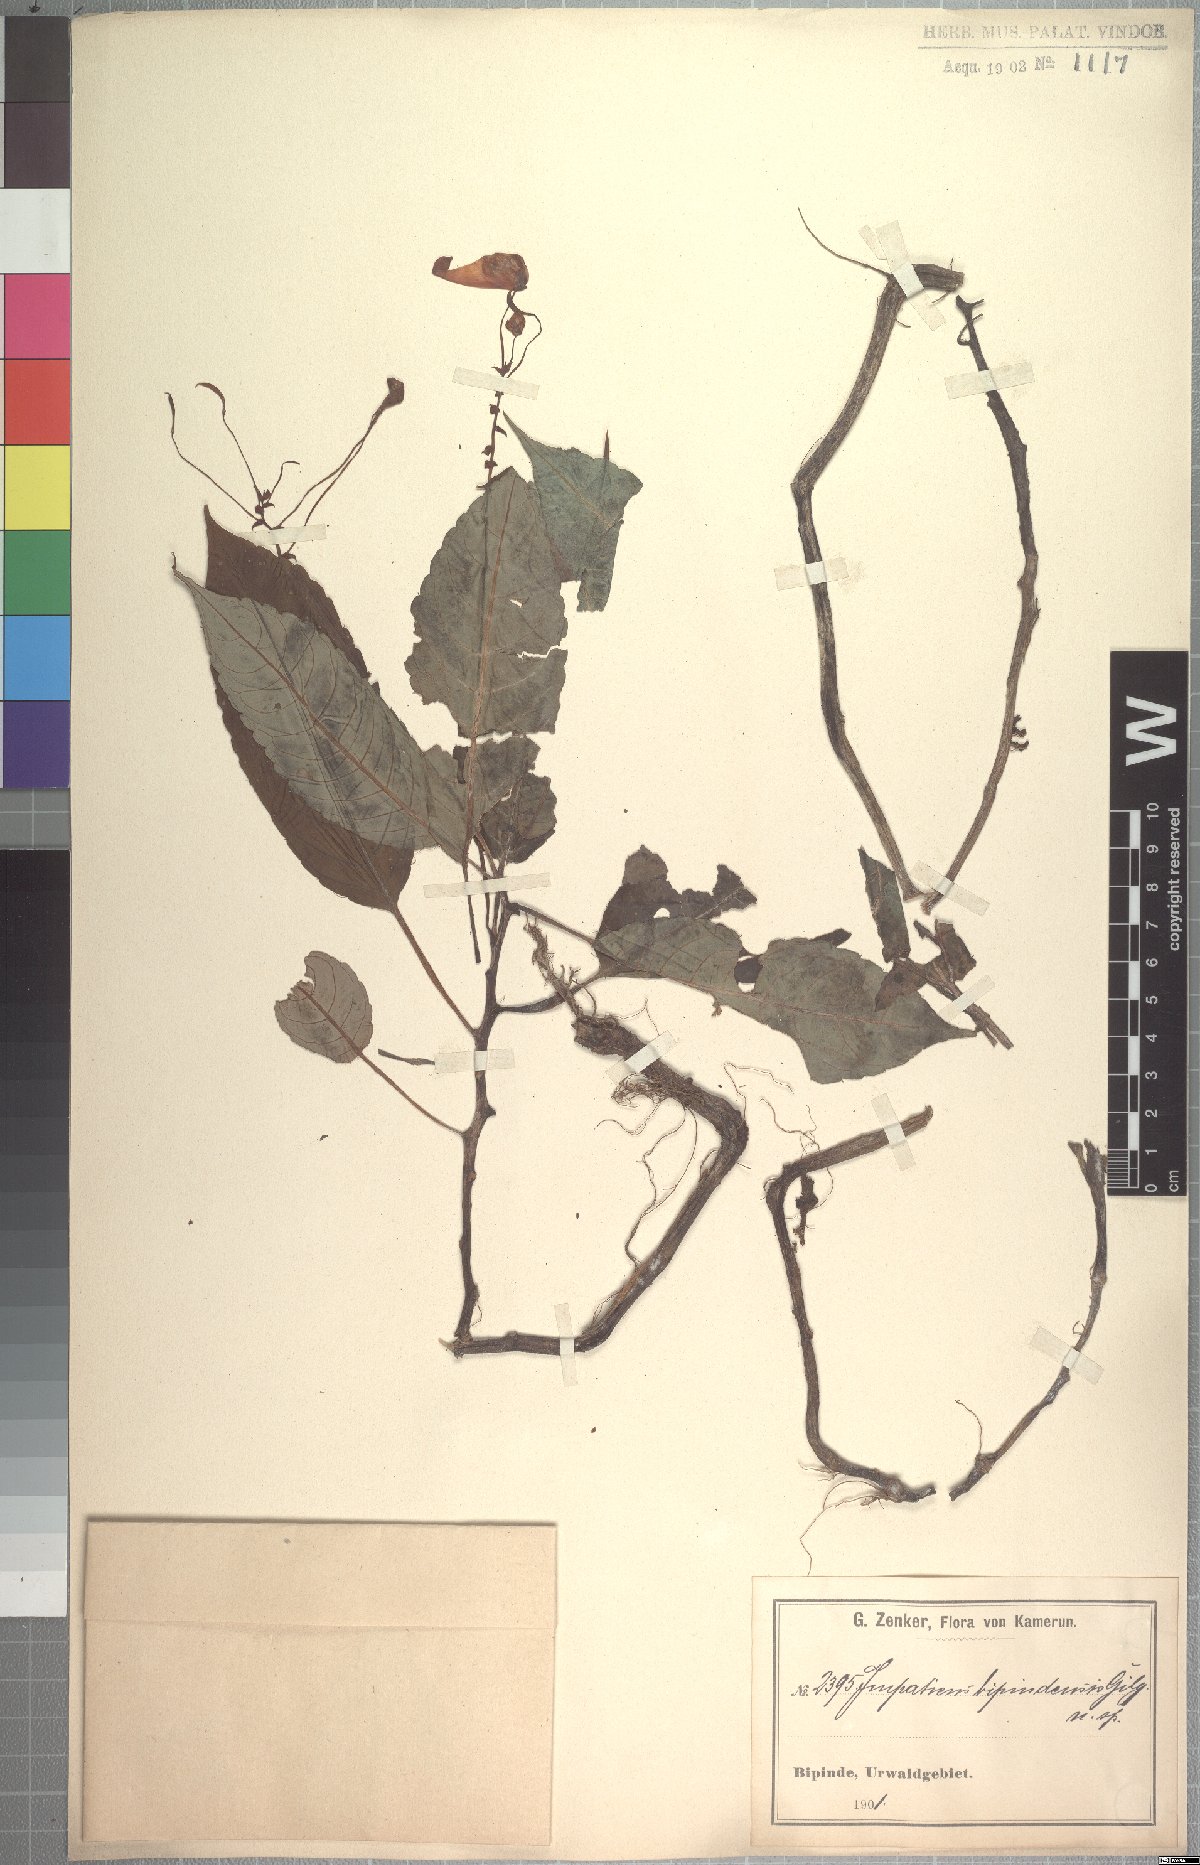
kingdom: Plantae
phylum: Tracheophyta
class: Magnoliopsida
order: Ericales
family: Balsaminaceae
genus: Impatiens
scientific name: Impatiens hians
